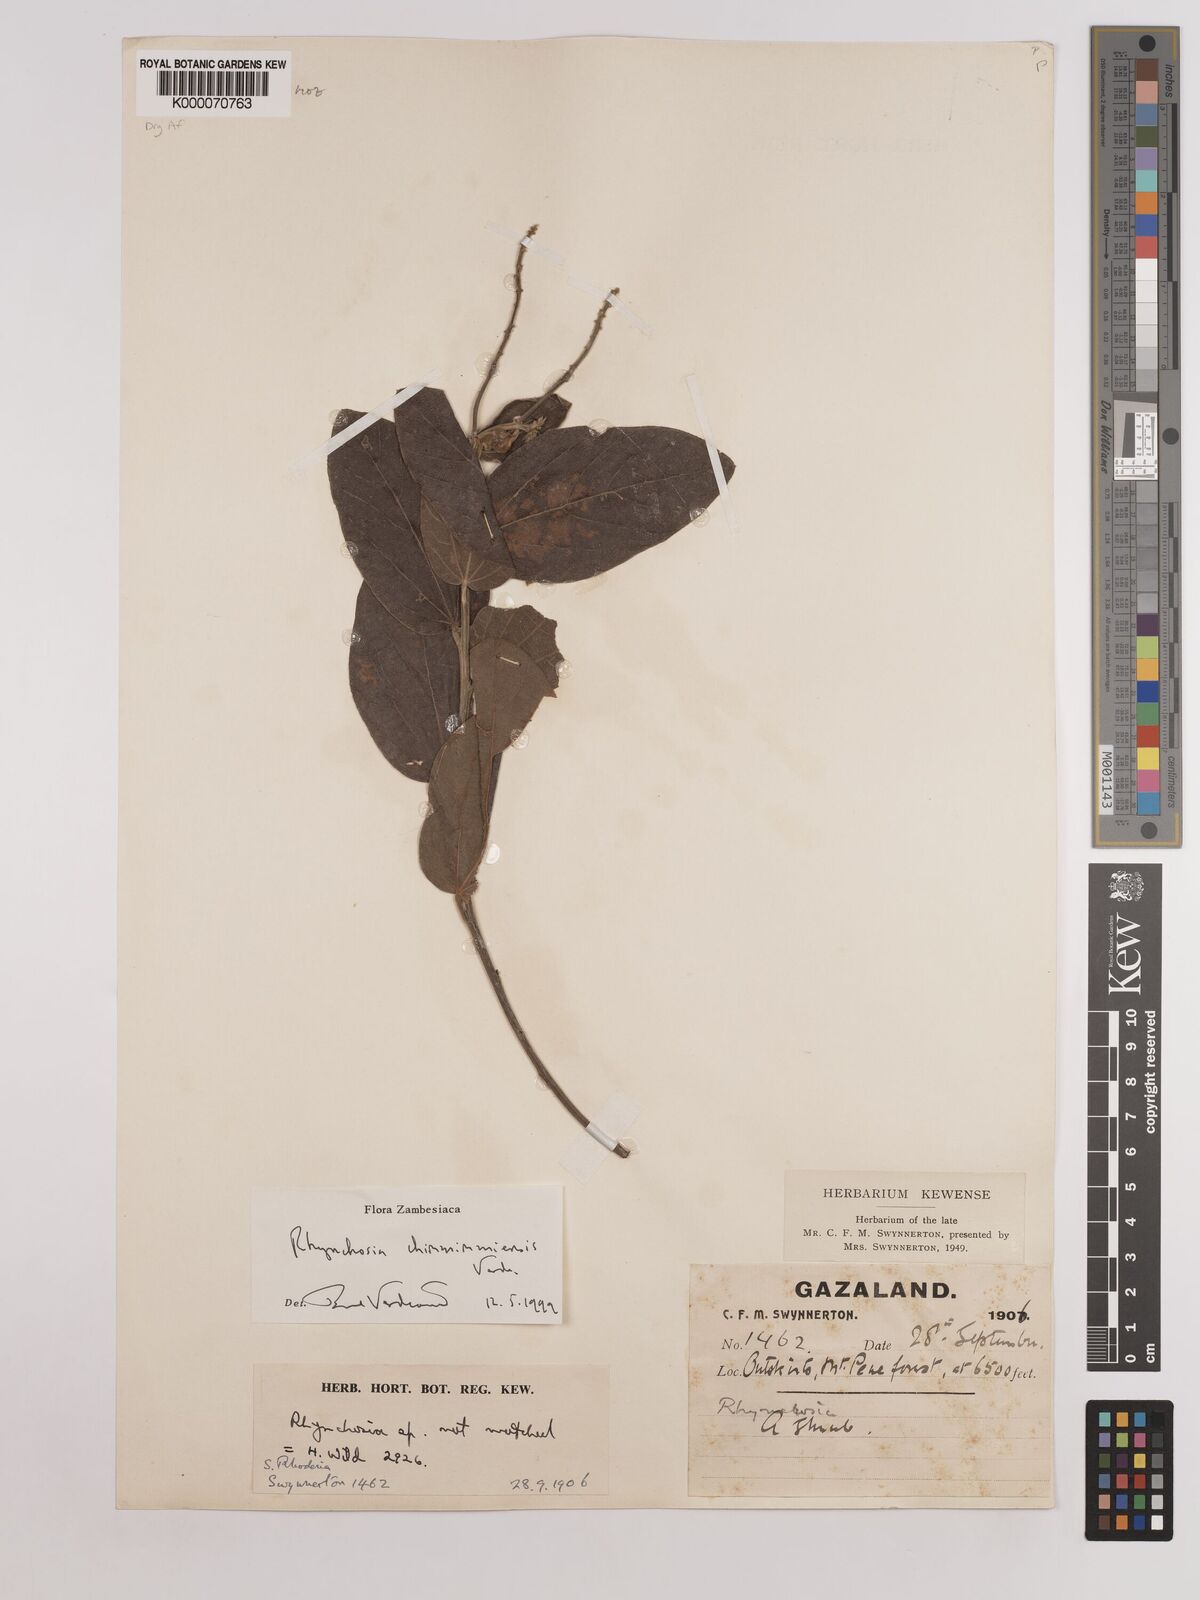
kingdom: Plantae
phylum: Tracheophyta
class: Magnoliopsida
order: Fabales
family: Fabaceae
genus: Rhynchosia
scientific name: Rhynchosia chimanimaniensis
